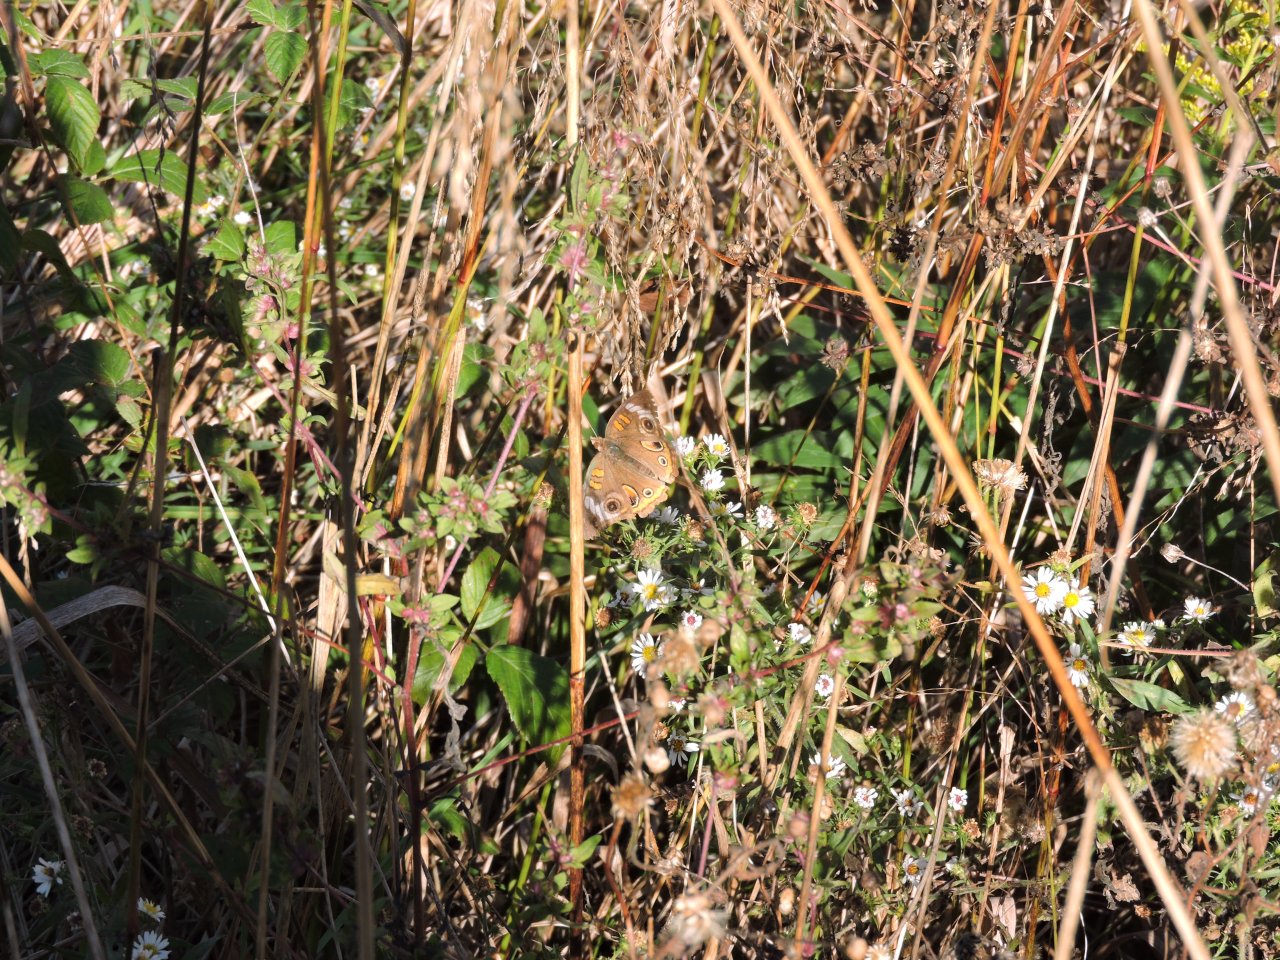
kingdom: Animalia
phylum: Arthropoda
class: Insecta
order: Lepidoptera
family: Nymphalidae
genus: Junonia
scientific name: Junonia coenia
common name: Common Buckeye
